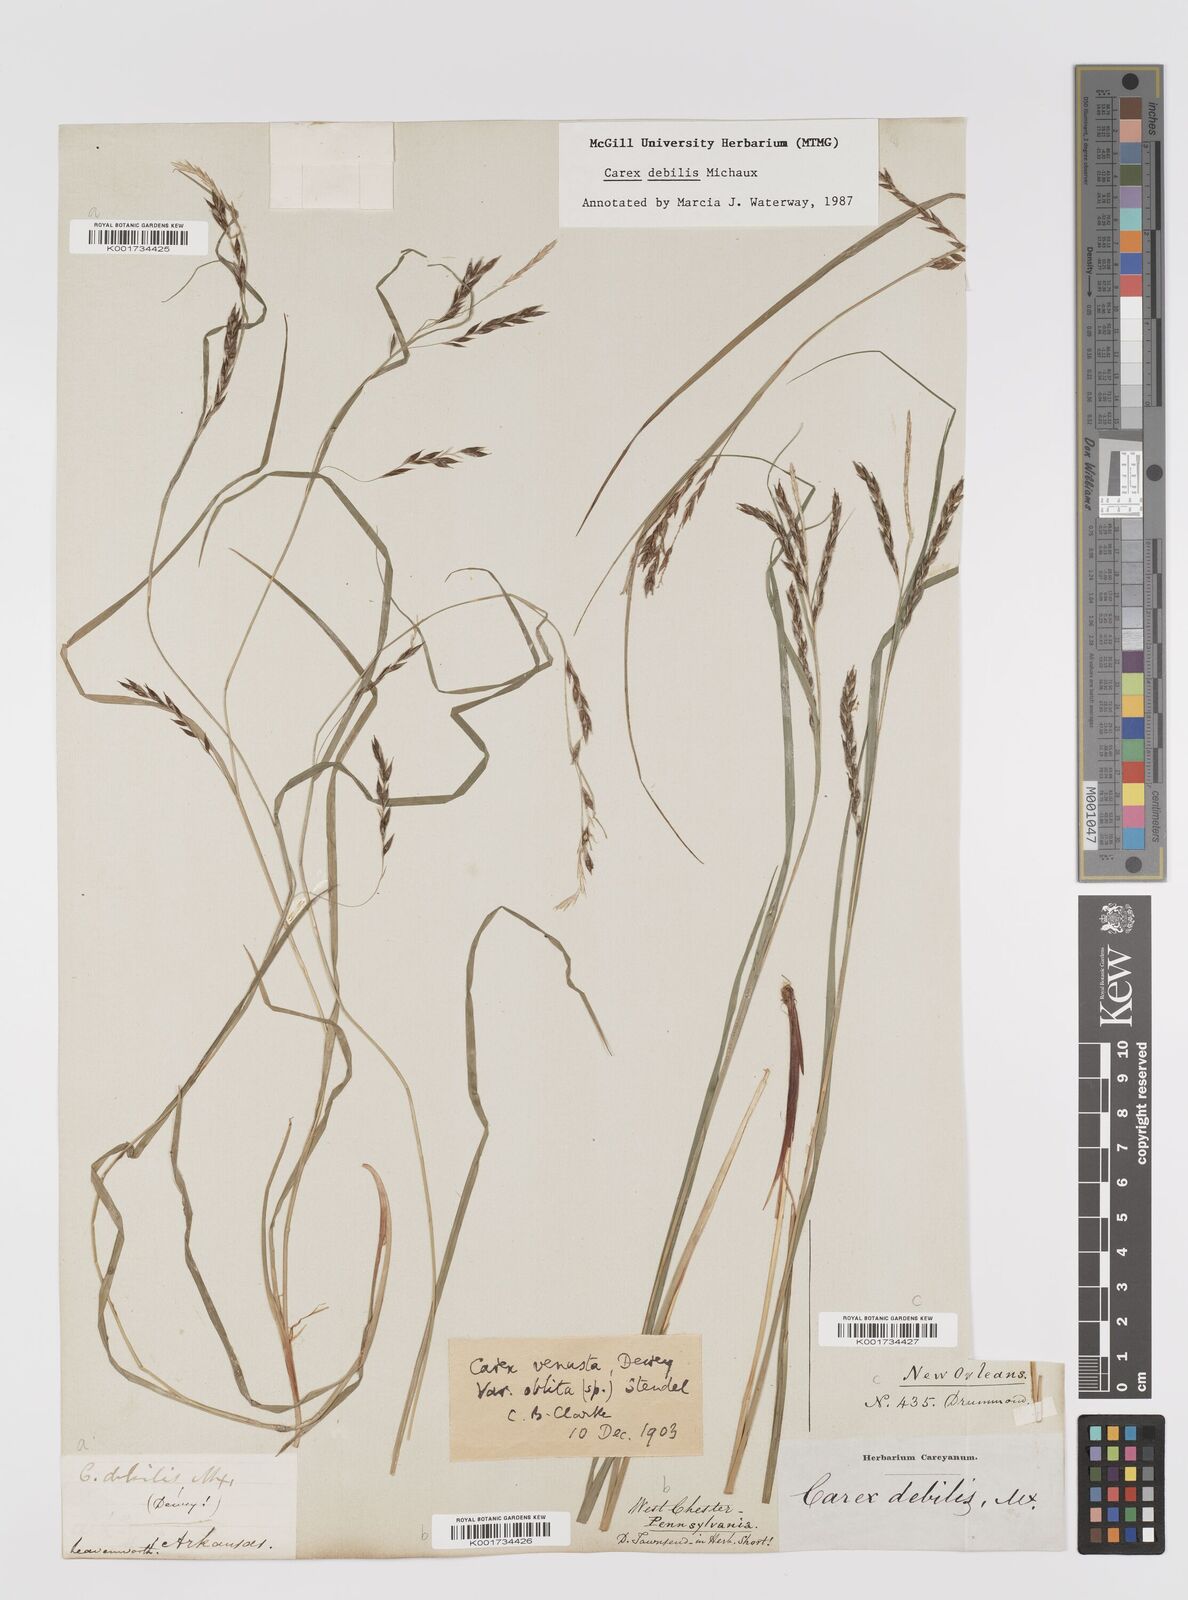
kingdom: Plantae
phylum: Tracheophyta
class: Liliopsida
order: Poales
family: Cyperaceae
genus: Carex
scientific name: Carex debilis
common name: White-edge sedge
